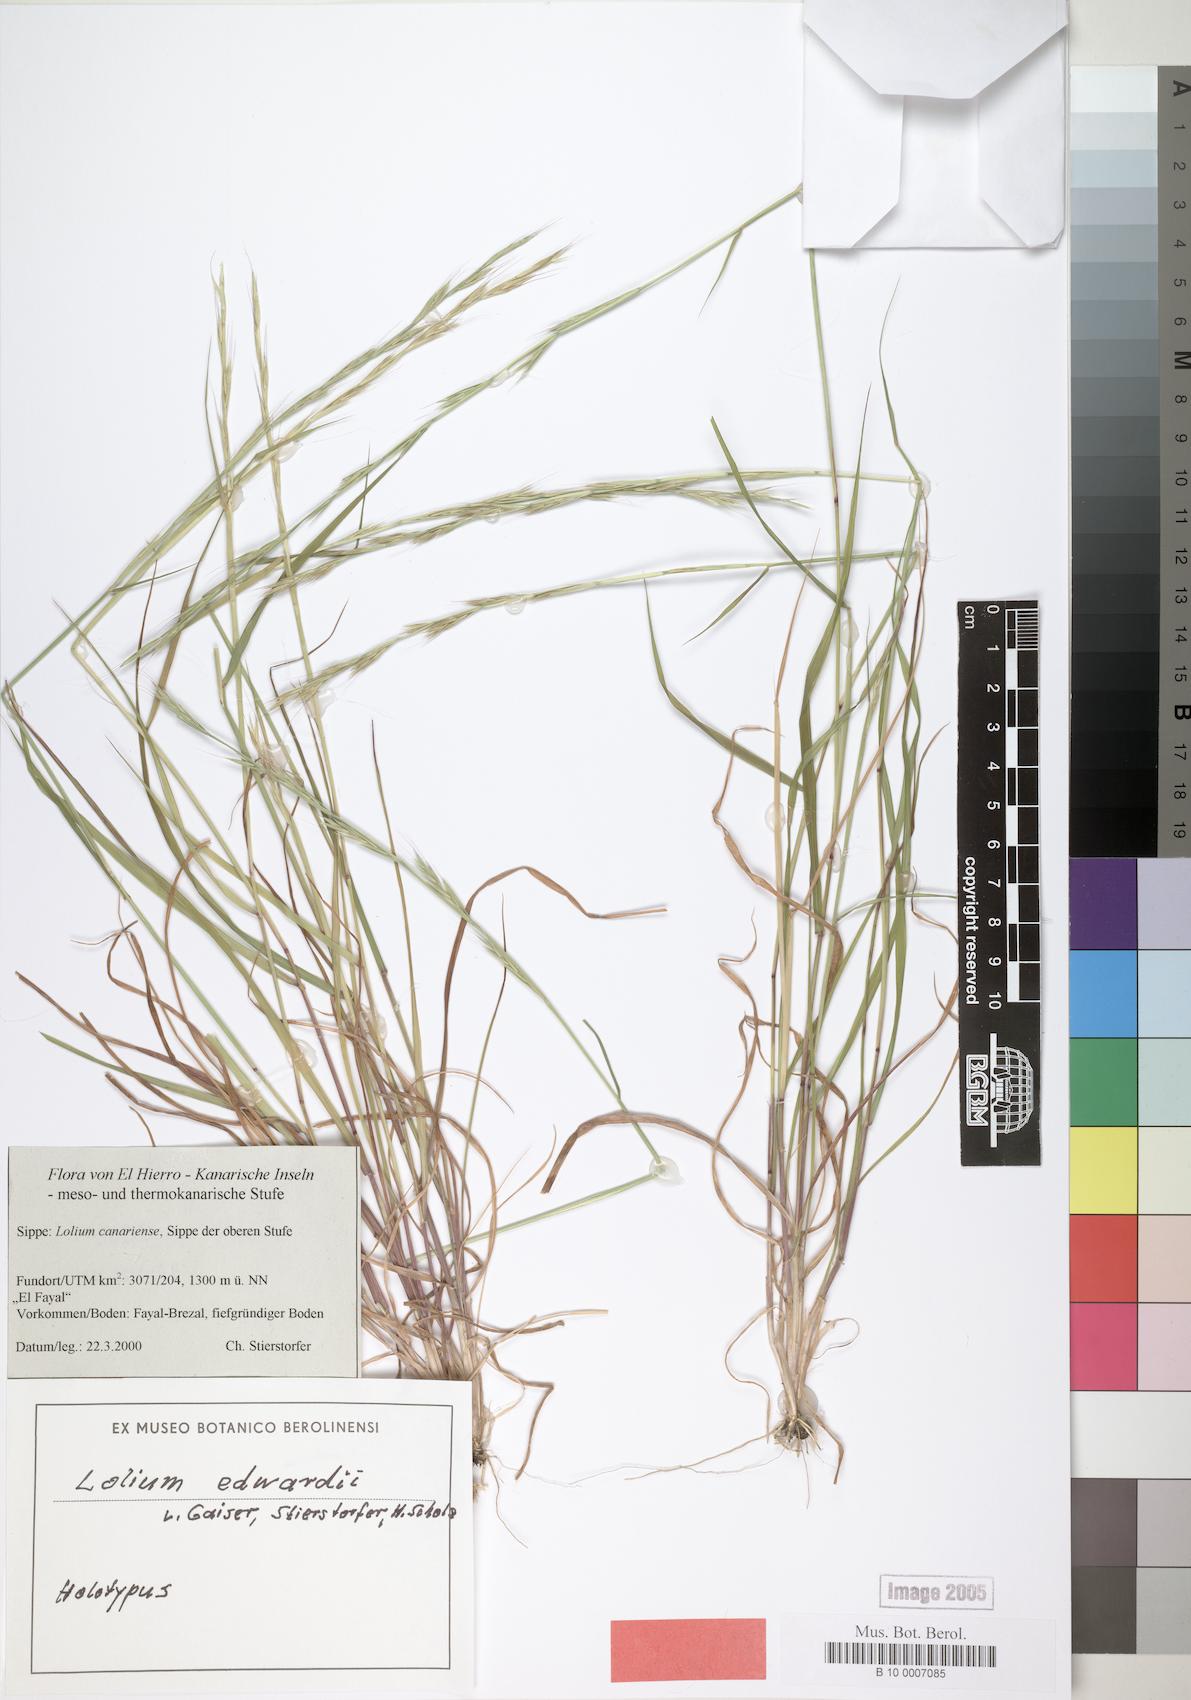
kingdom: Plantae
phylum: Tracheophyta
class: Liliopsida
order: Poales
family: Poaceae
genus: Lolium
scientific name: Lolium canariense
